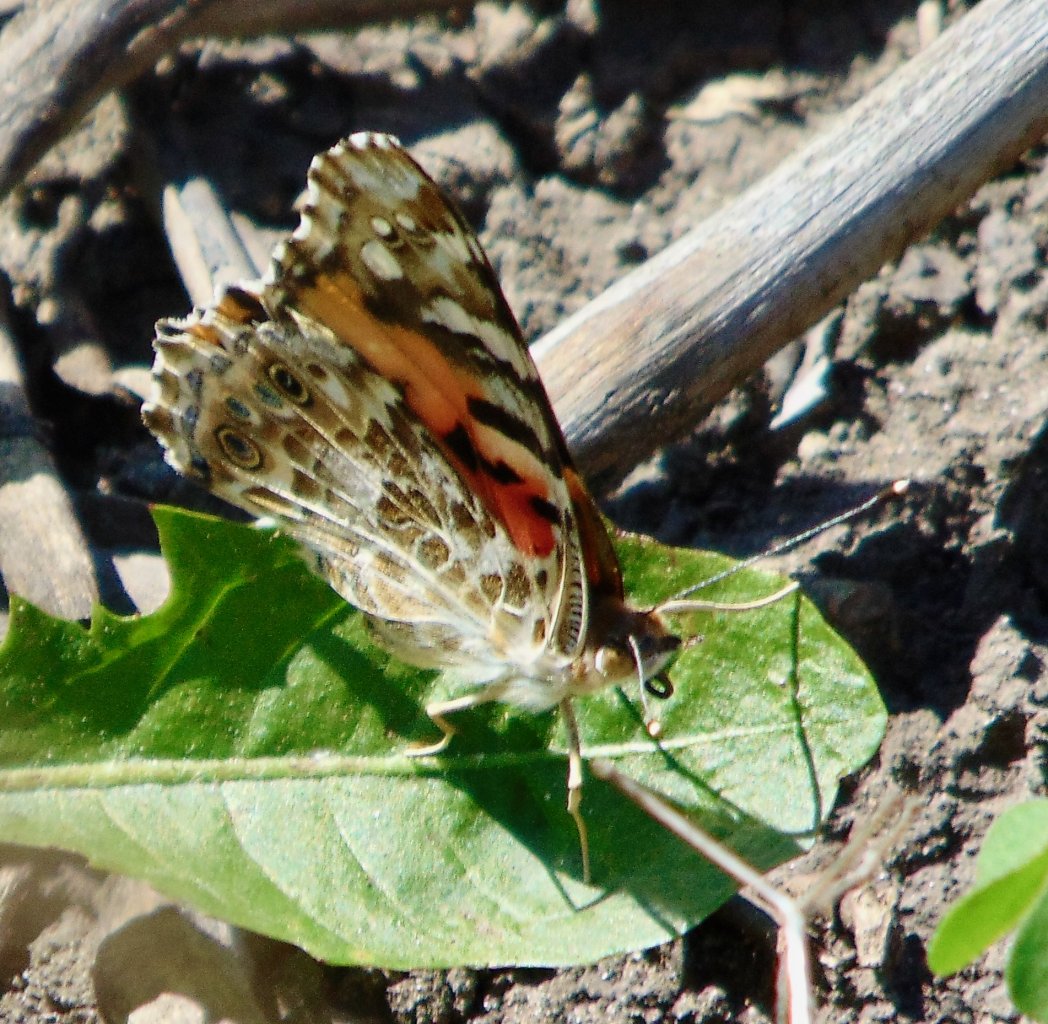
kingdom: Animalia
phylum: Arthropoda
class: Insecta
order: Lepidoptera
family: Nymphalidae
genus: Vanessa
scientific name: Vanessa cardui
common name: Painted Lady
